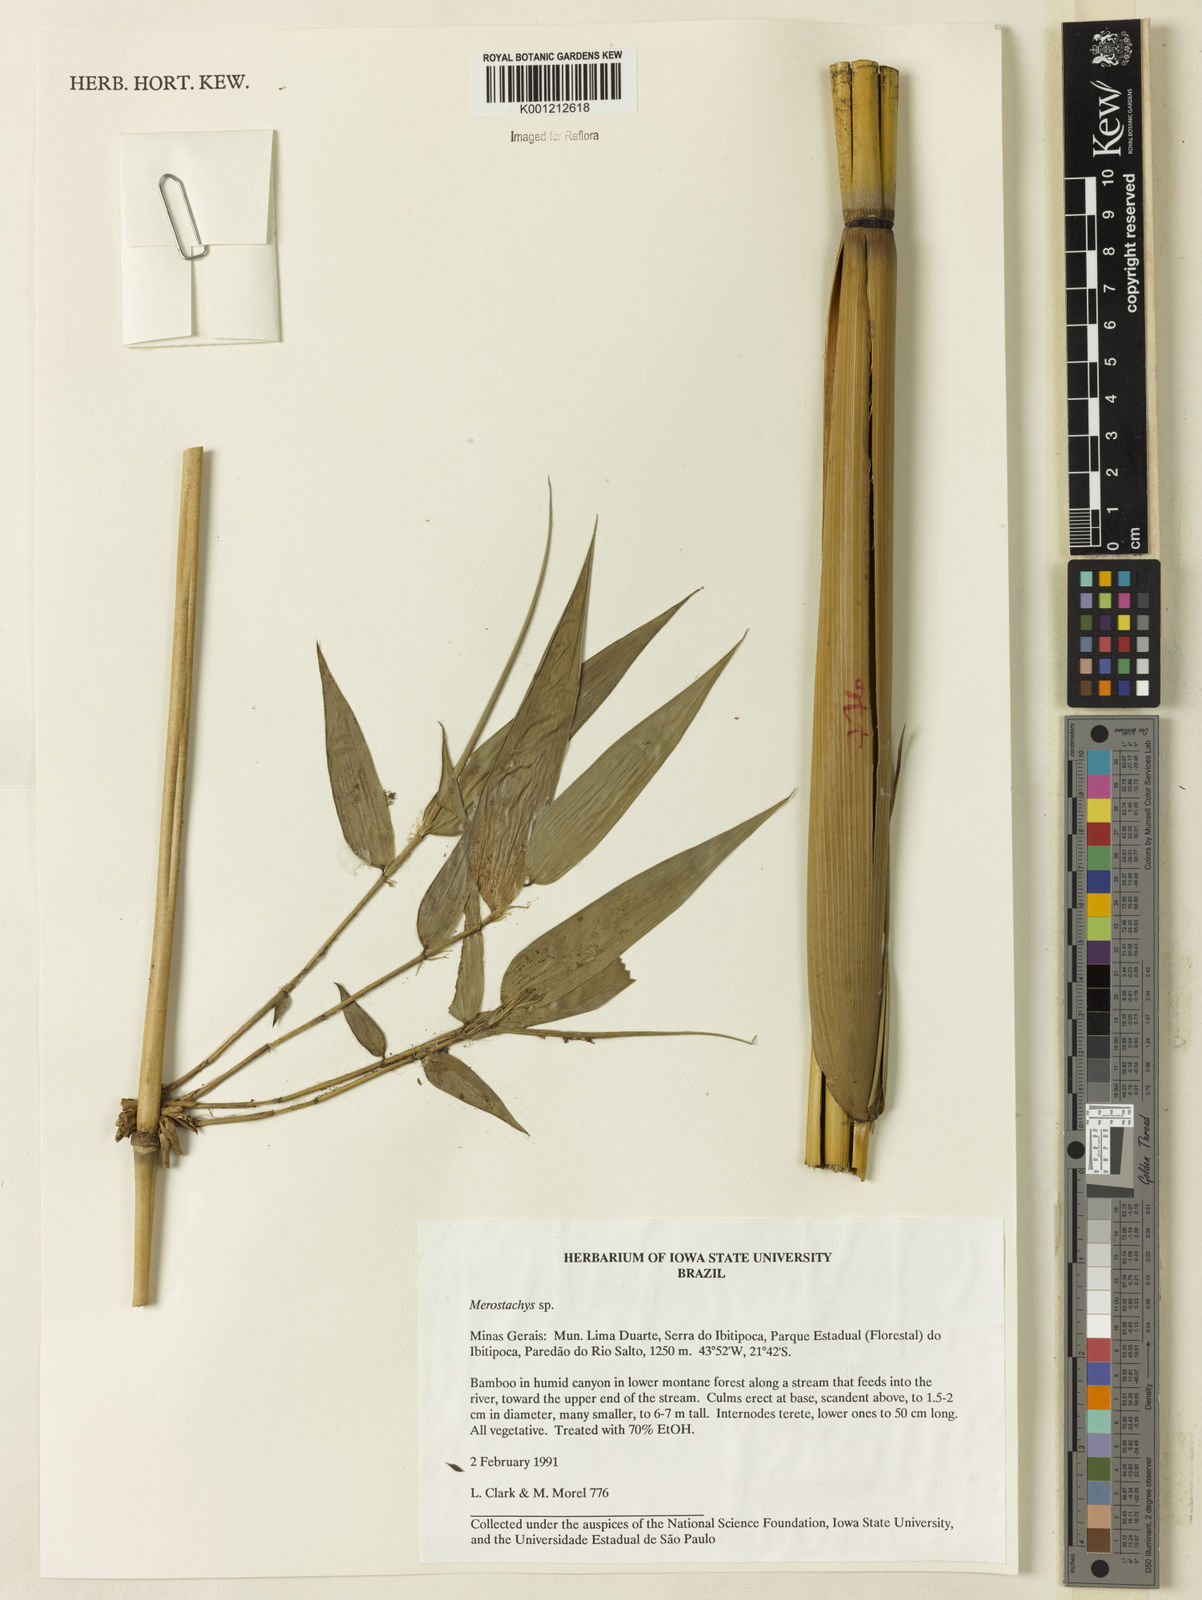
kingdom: Plantae
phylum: Tracheophyta
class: Liliopsida
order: Poales
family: Poaceae
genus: Merostachys
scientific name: Merostachys
